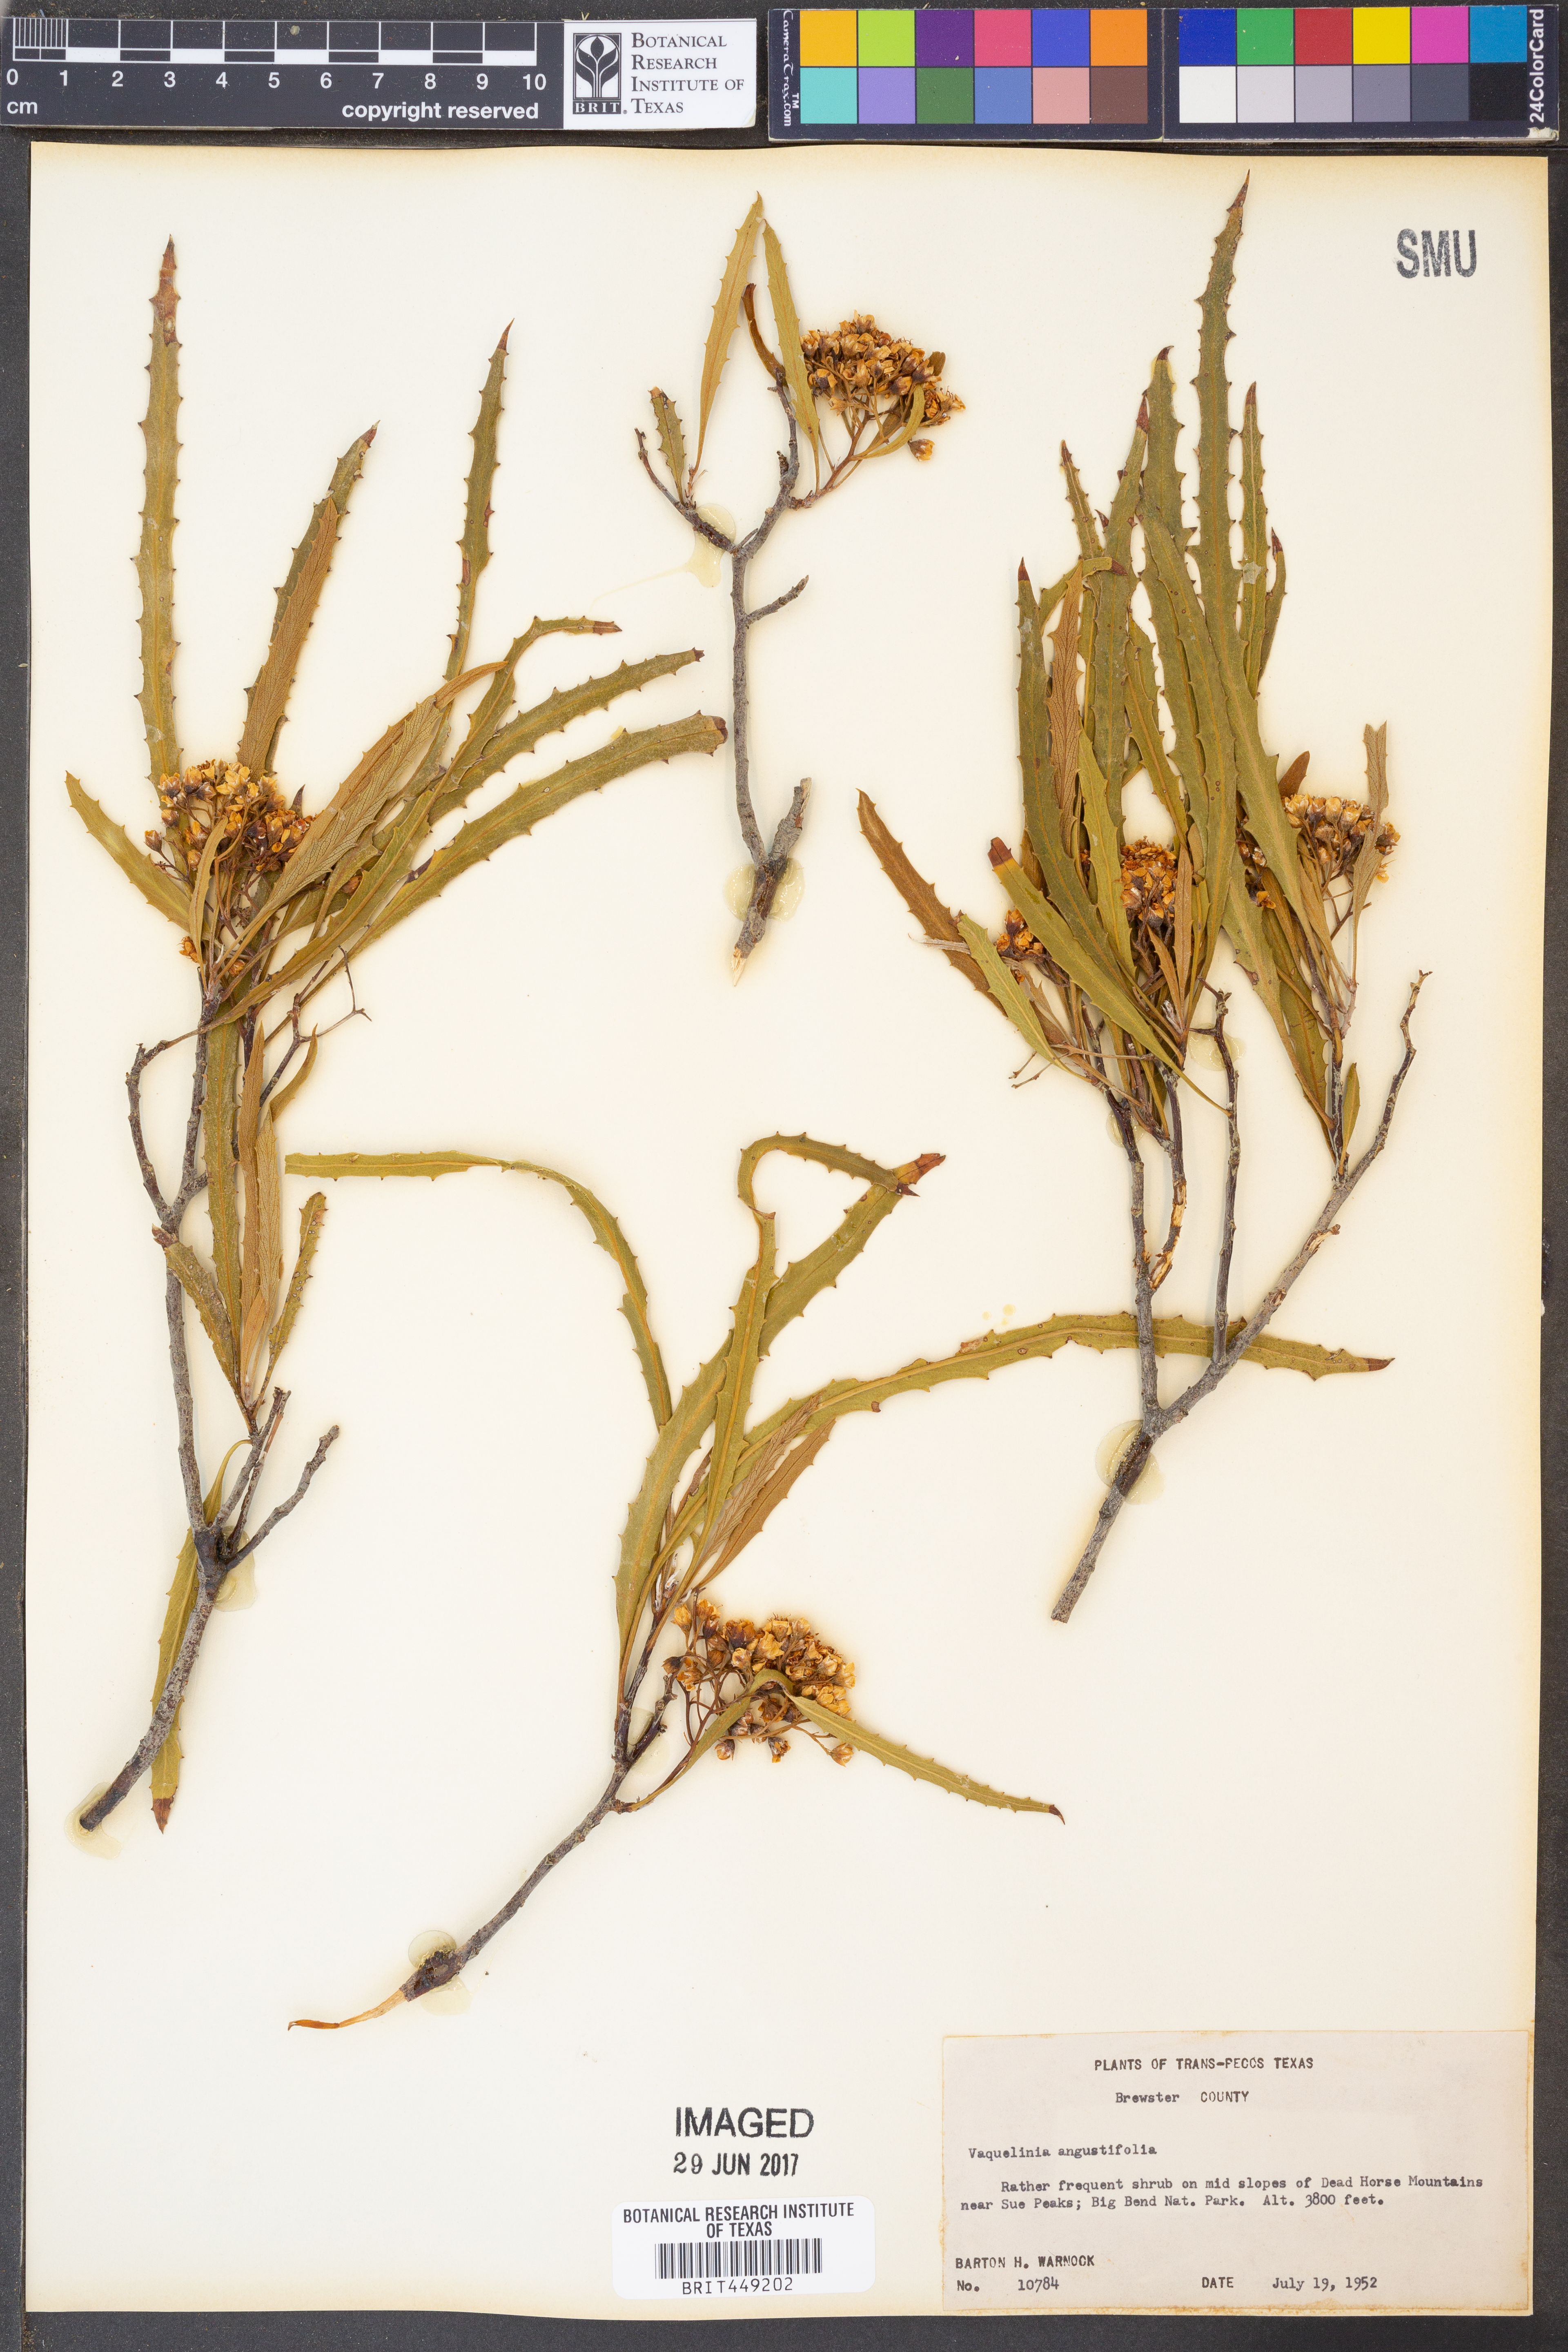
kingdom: Plantae
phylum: Tracheophyta
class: Magnoliopsida
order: Rosales
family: Rosaceae
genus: Vauquelinia
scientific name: Vauquelinia corymbosa
